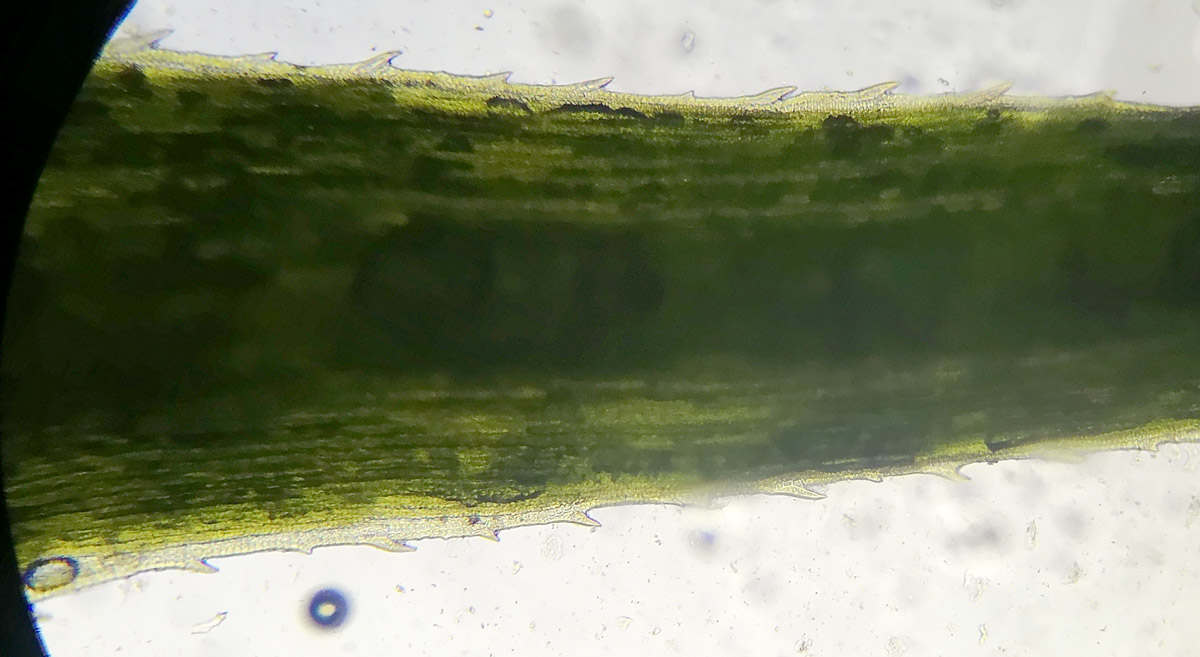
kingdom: Plantae
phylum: Bryophyta
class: Polytrichopsida
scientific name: Polytrichopsida
